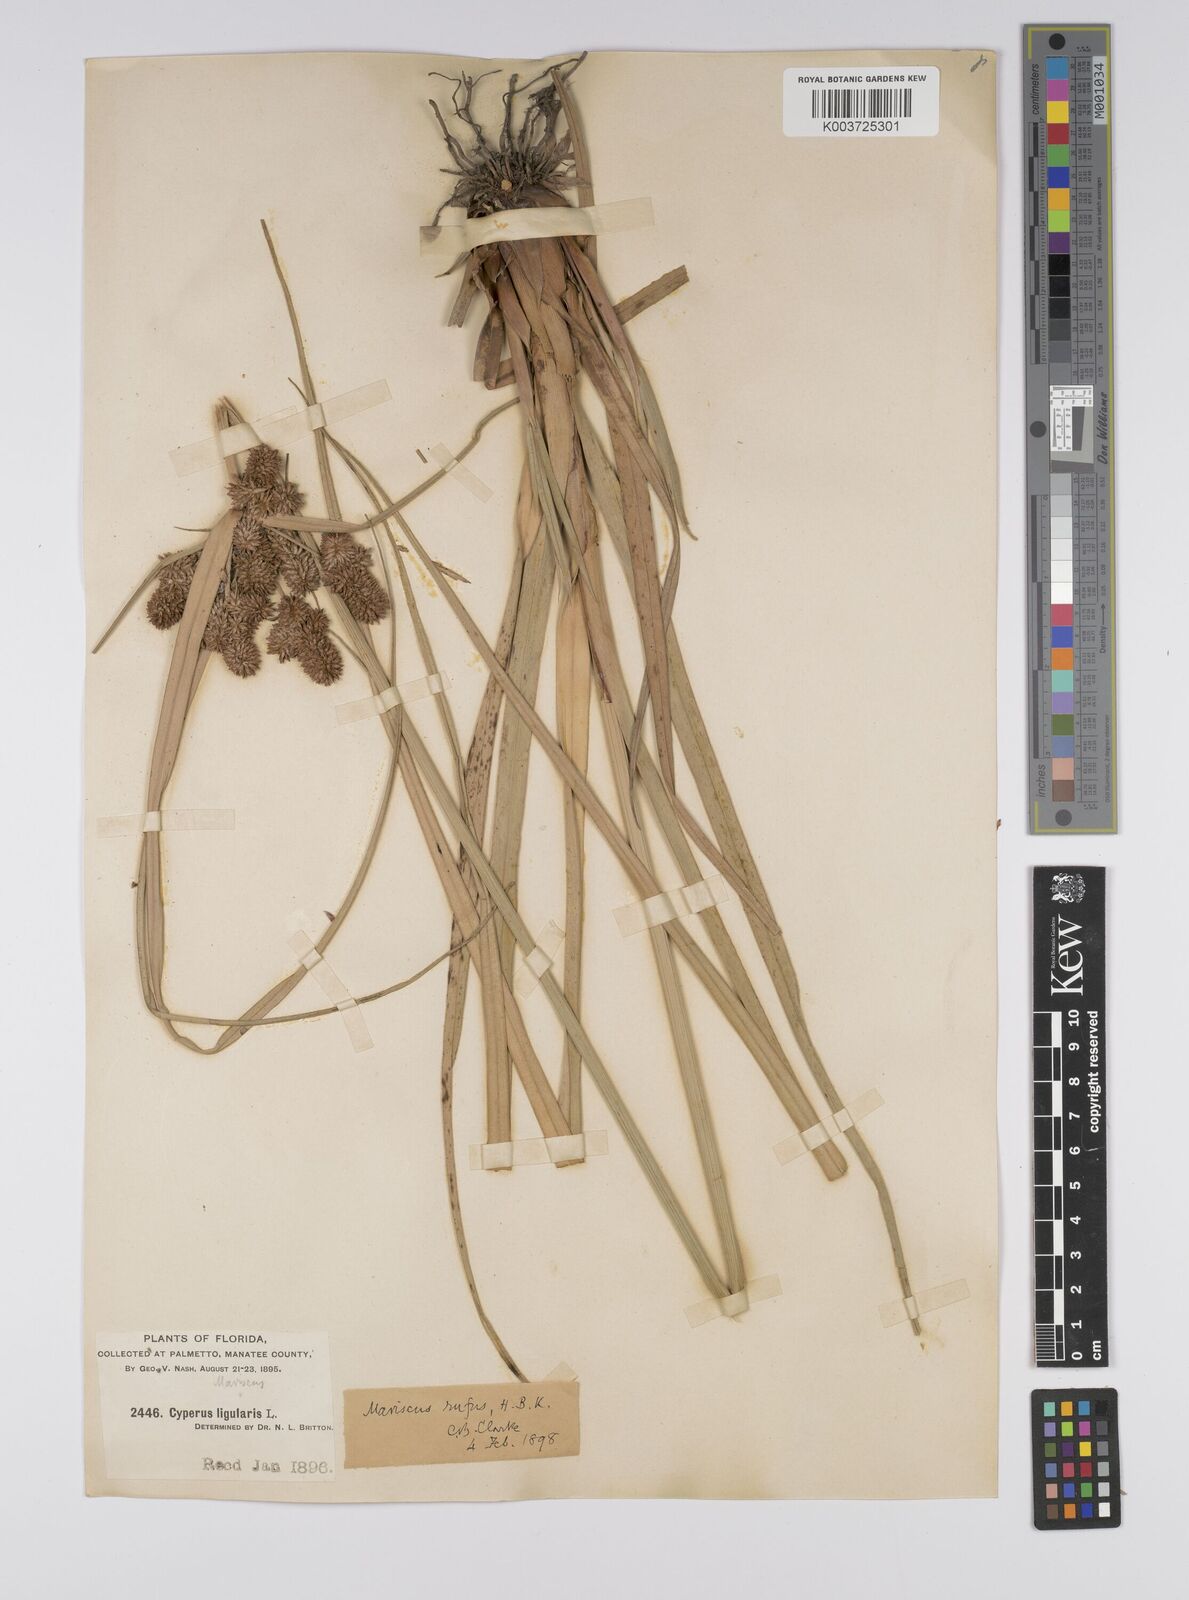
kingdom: Plantae
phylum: Tracheophyta
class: Liliopsida
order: Poales
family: Cyperaceae
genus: Cyperus
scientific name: Cyperus ligularis
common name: Swamp flat sedge
